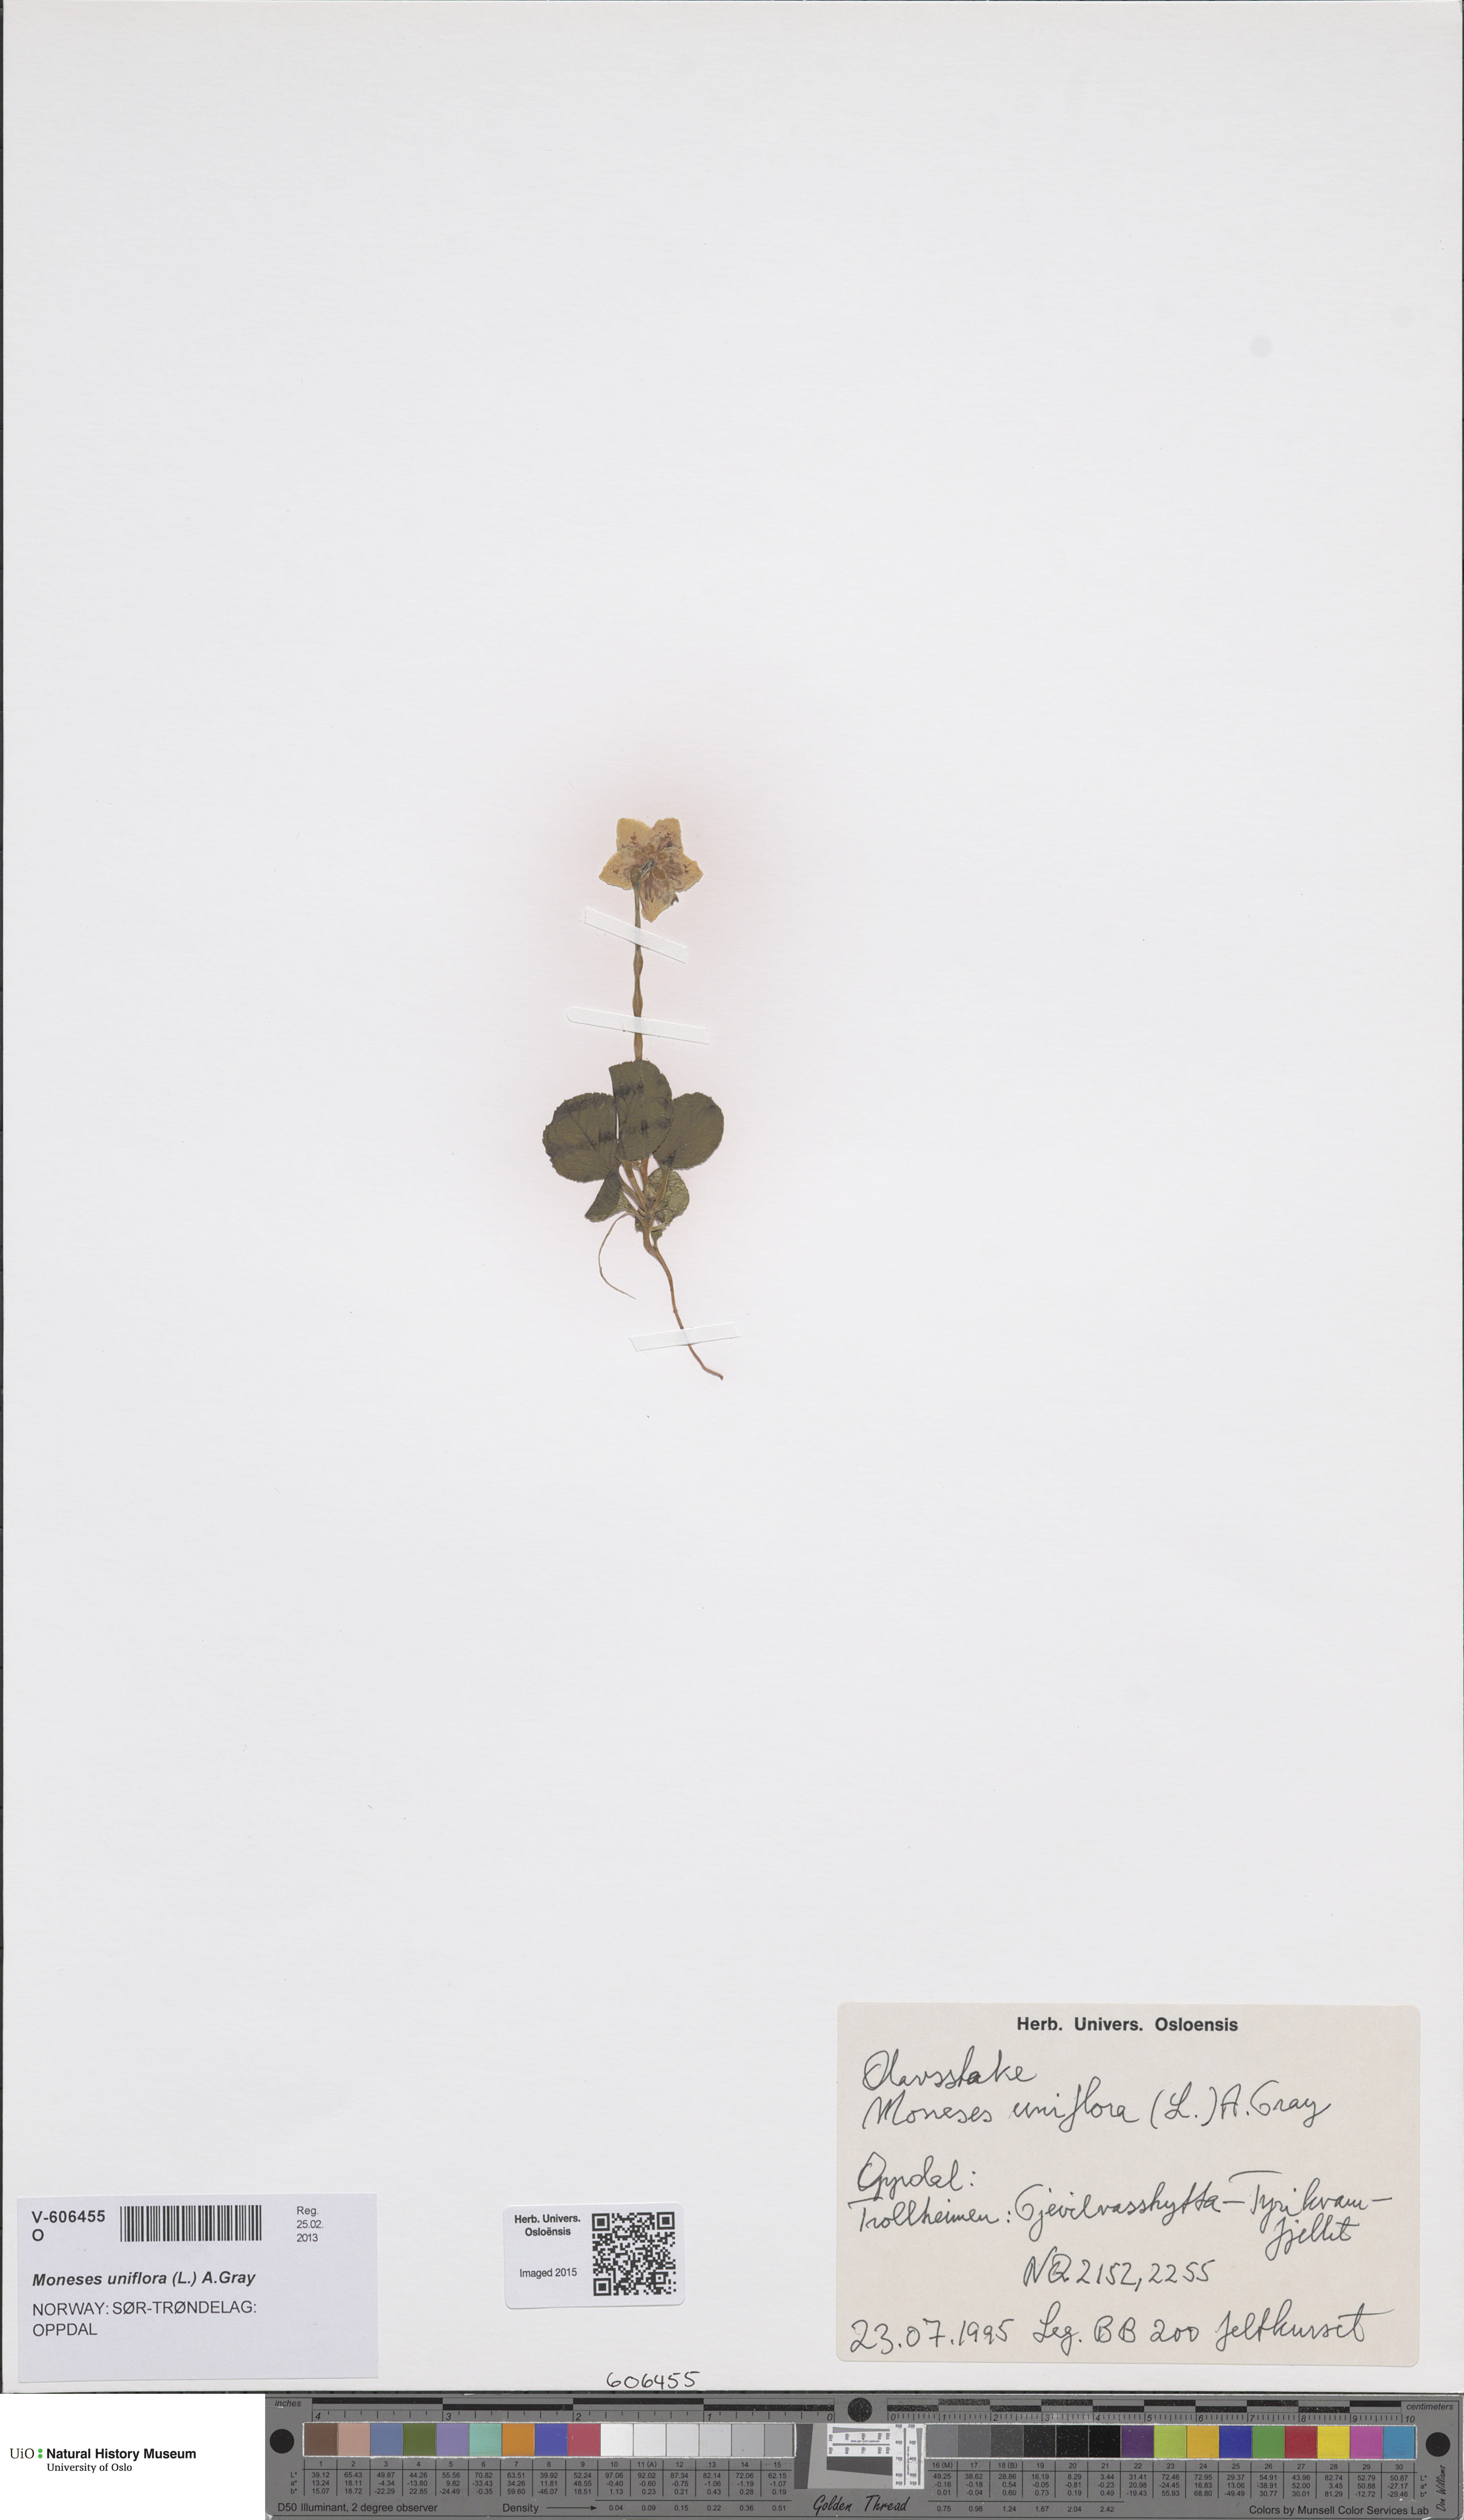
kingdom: Plantae
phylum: Tracheophyta
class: Magnoliopsida
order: Ericales
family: Ericaceae
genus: Moneses
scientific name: Moneses uniflora
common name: One-flowered wintergreen
